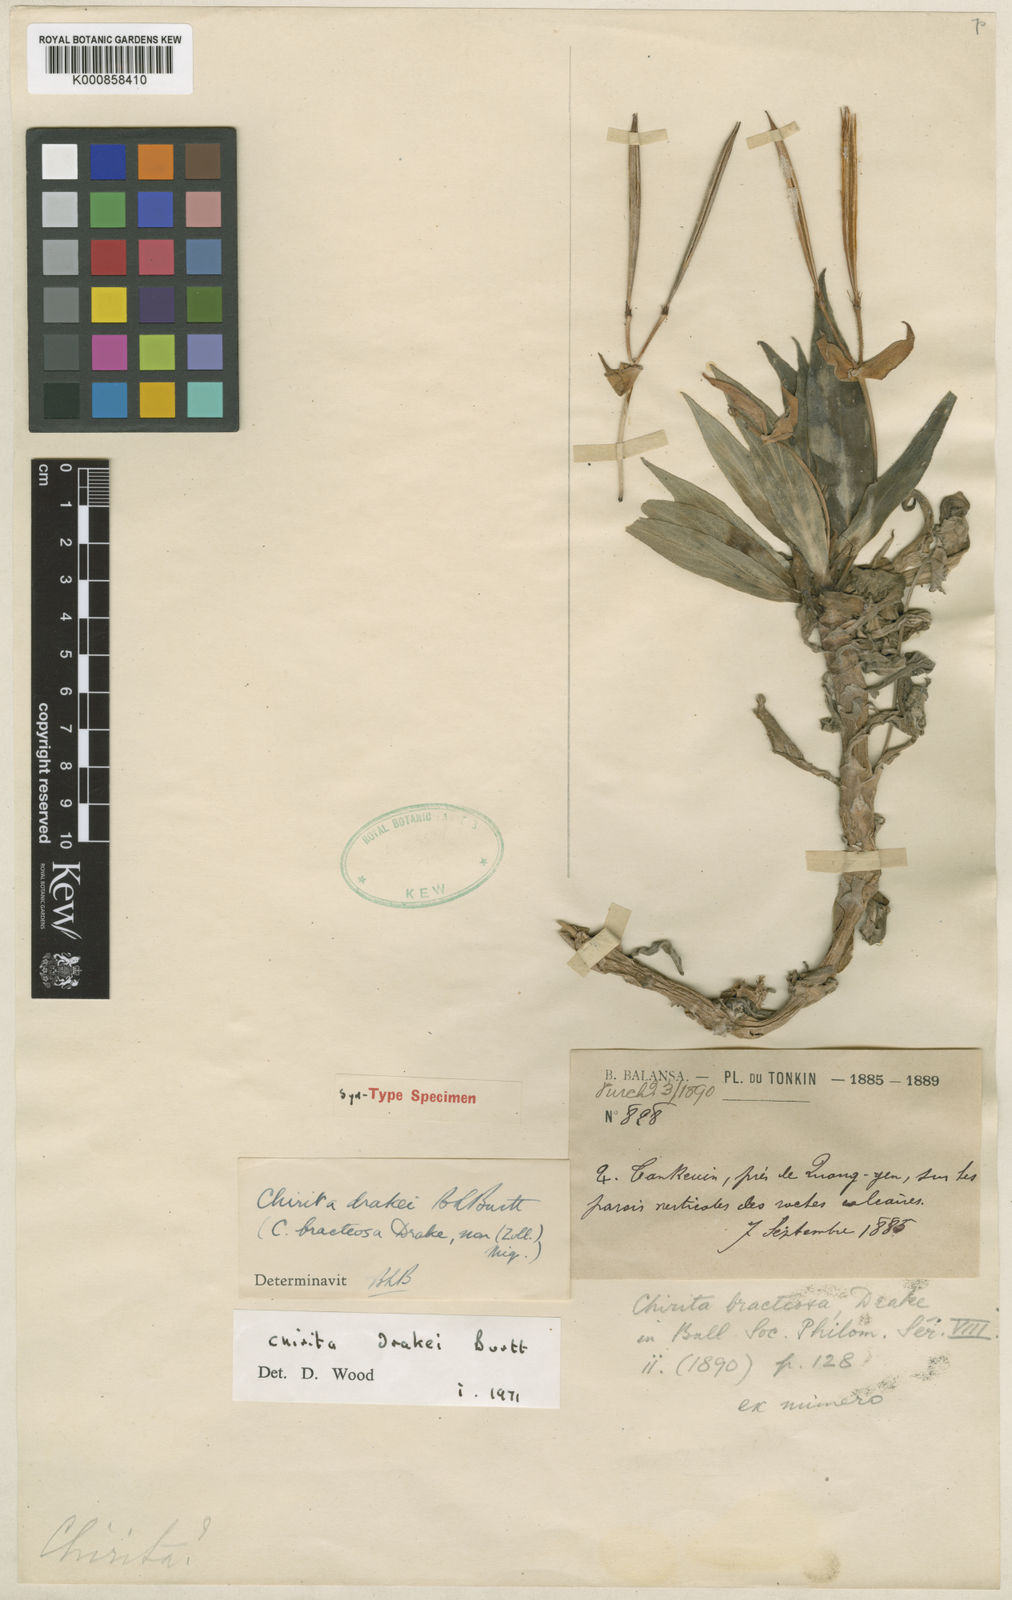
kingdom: Plantae
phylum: Tracheophyta
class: Magnoliopsida
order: Lamiales
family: Gesneriaceae
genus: Primulina
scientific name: Primulina
